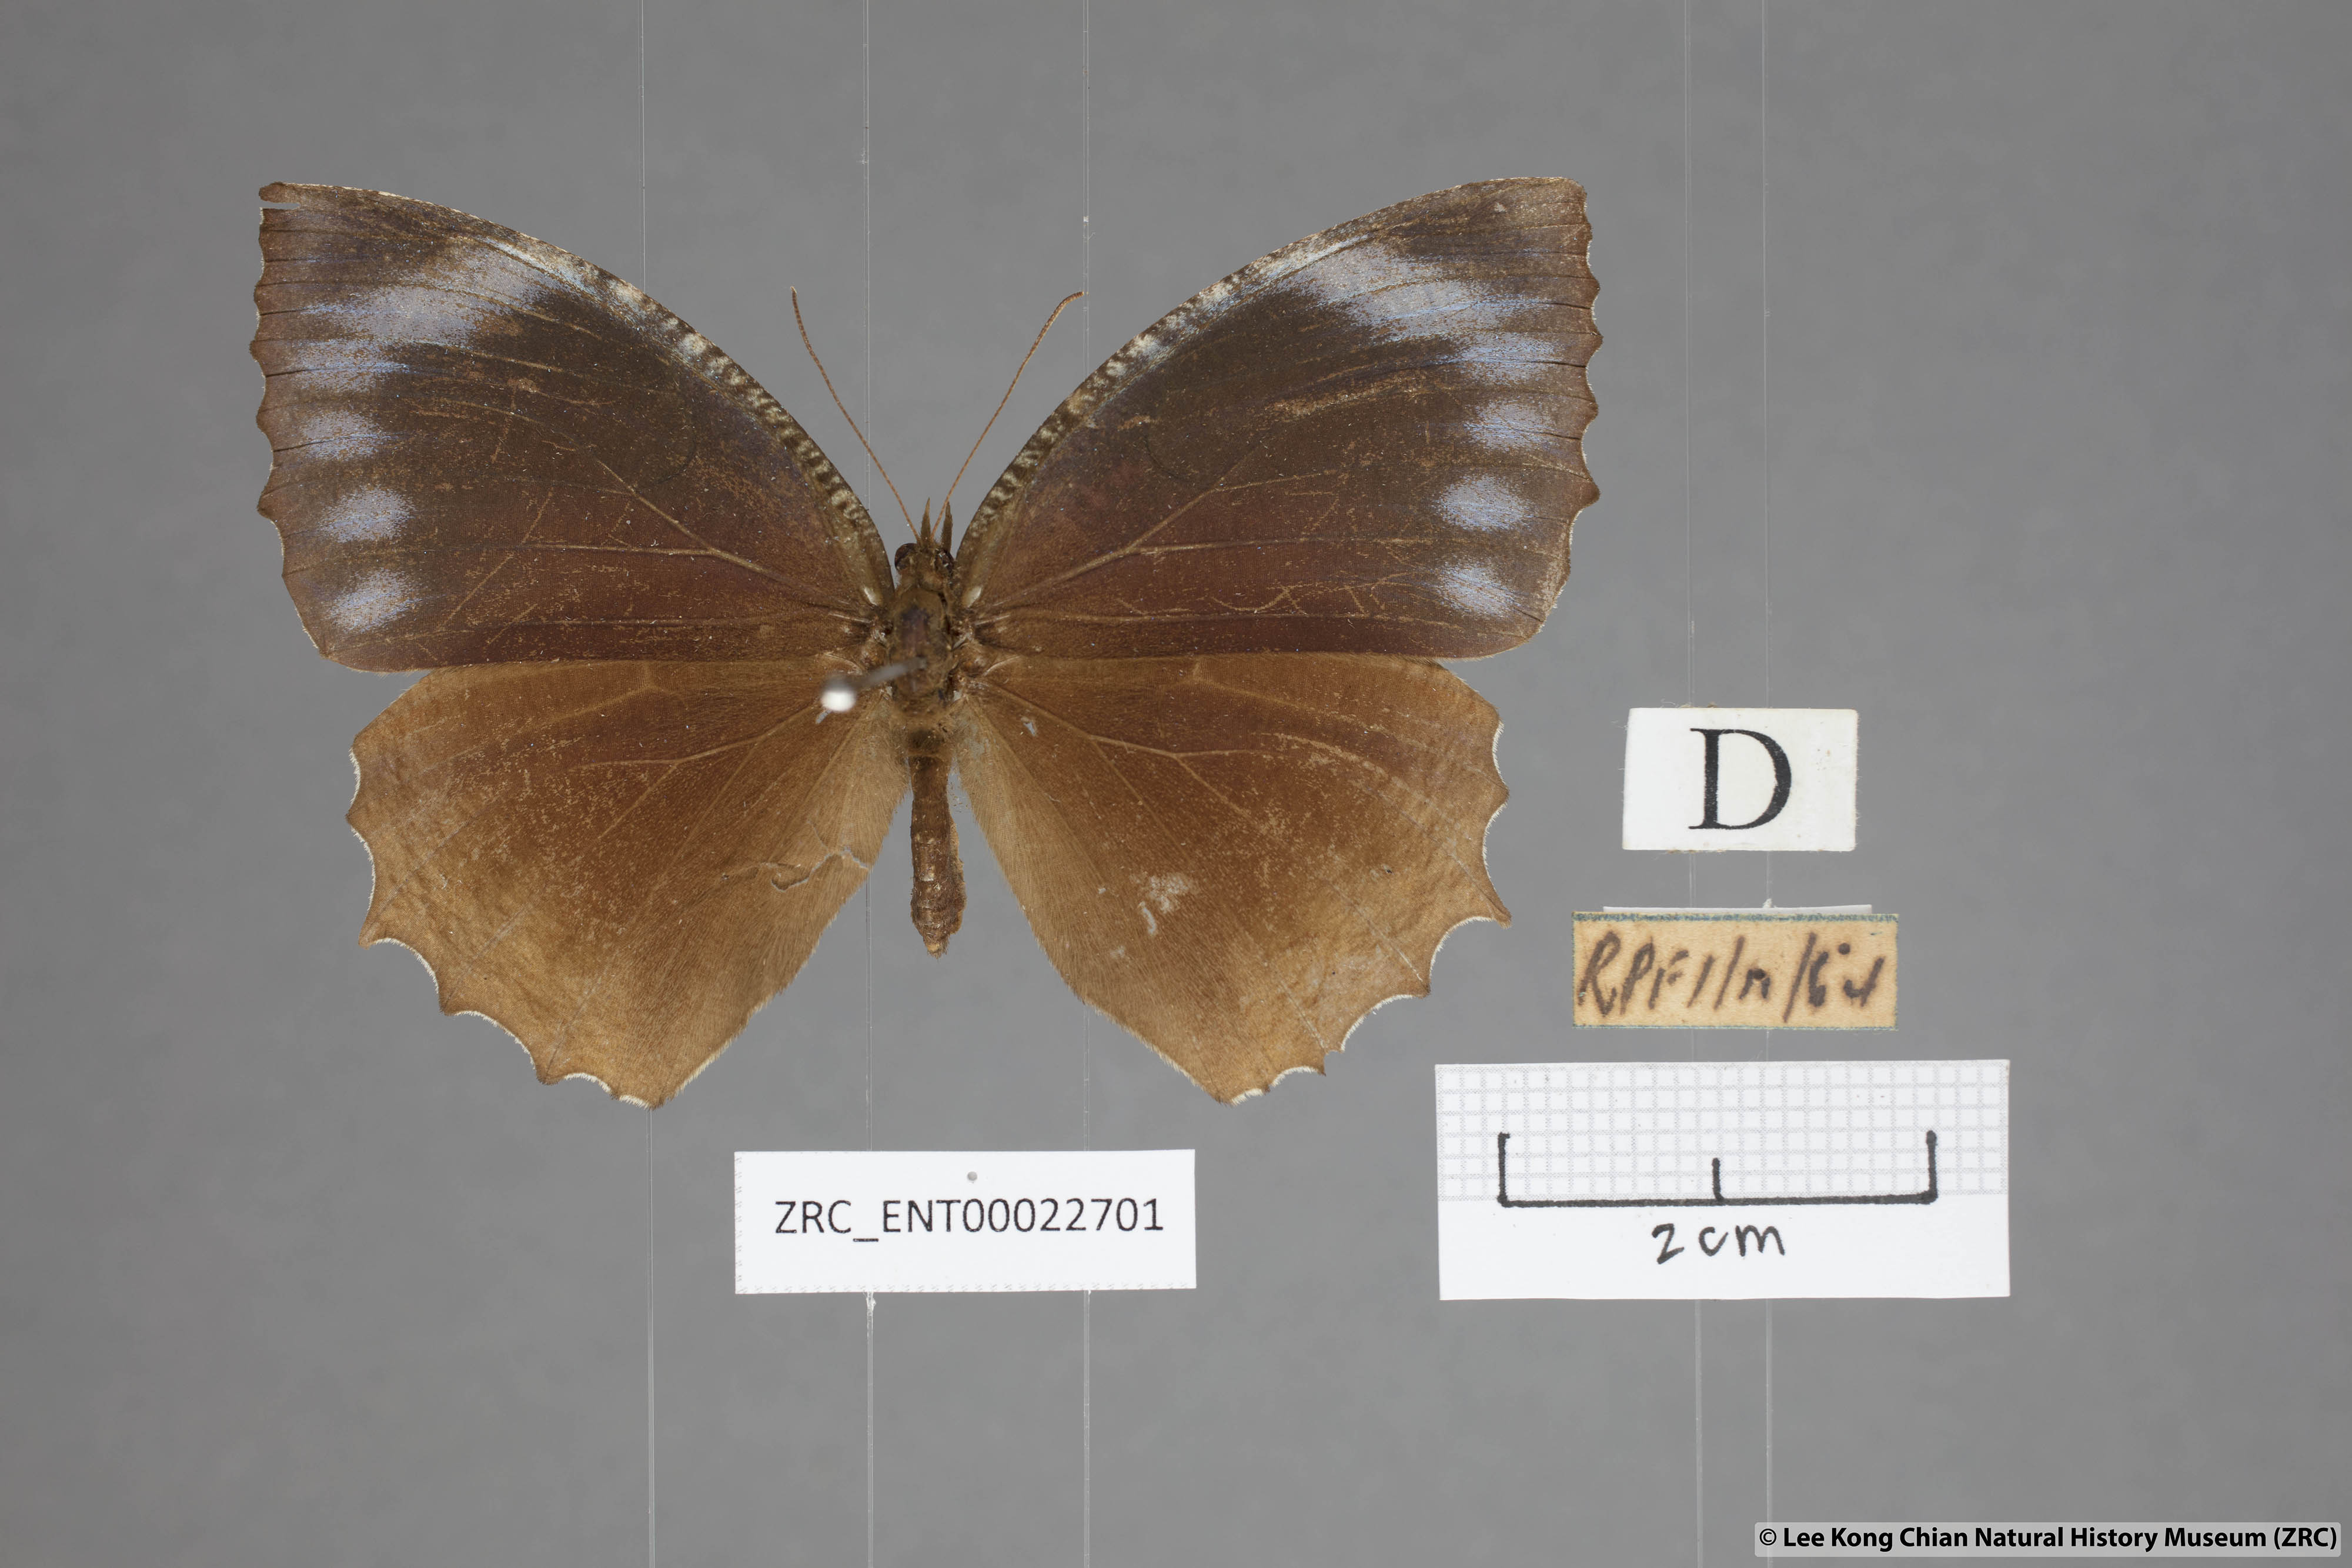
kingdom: Animalia
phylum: Arthropoda
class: Insecta
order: Lepidoptera
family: Nymphalidae
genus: Elymnias
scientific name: Elymnias hypermnestra
